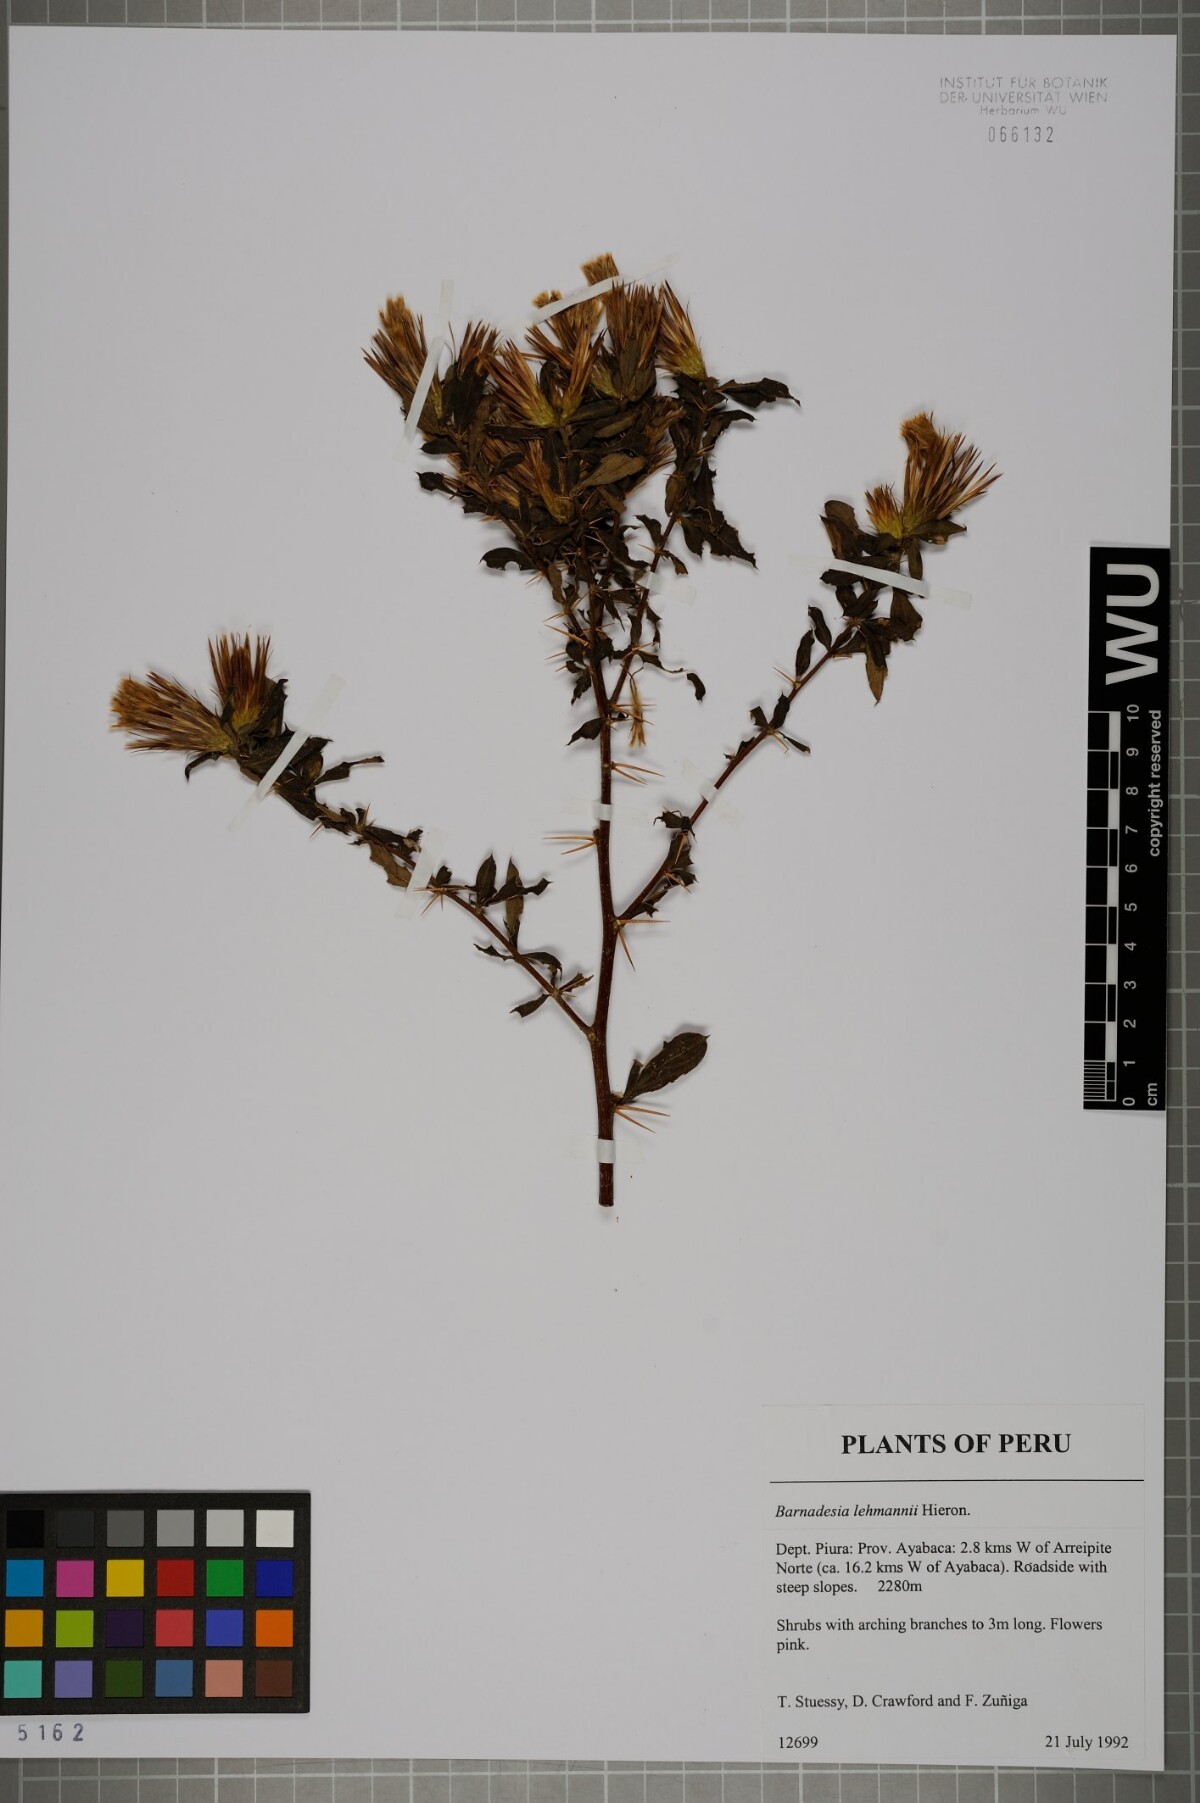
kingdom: Plantae
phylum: Tracheophyta
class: Magnoliopsida
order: Asterales
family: Asteraceae
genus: Barnadesia
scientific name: Barnadesia lehmannii
